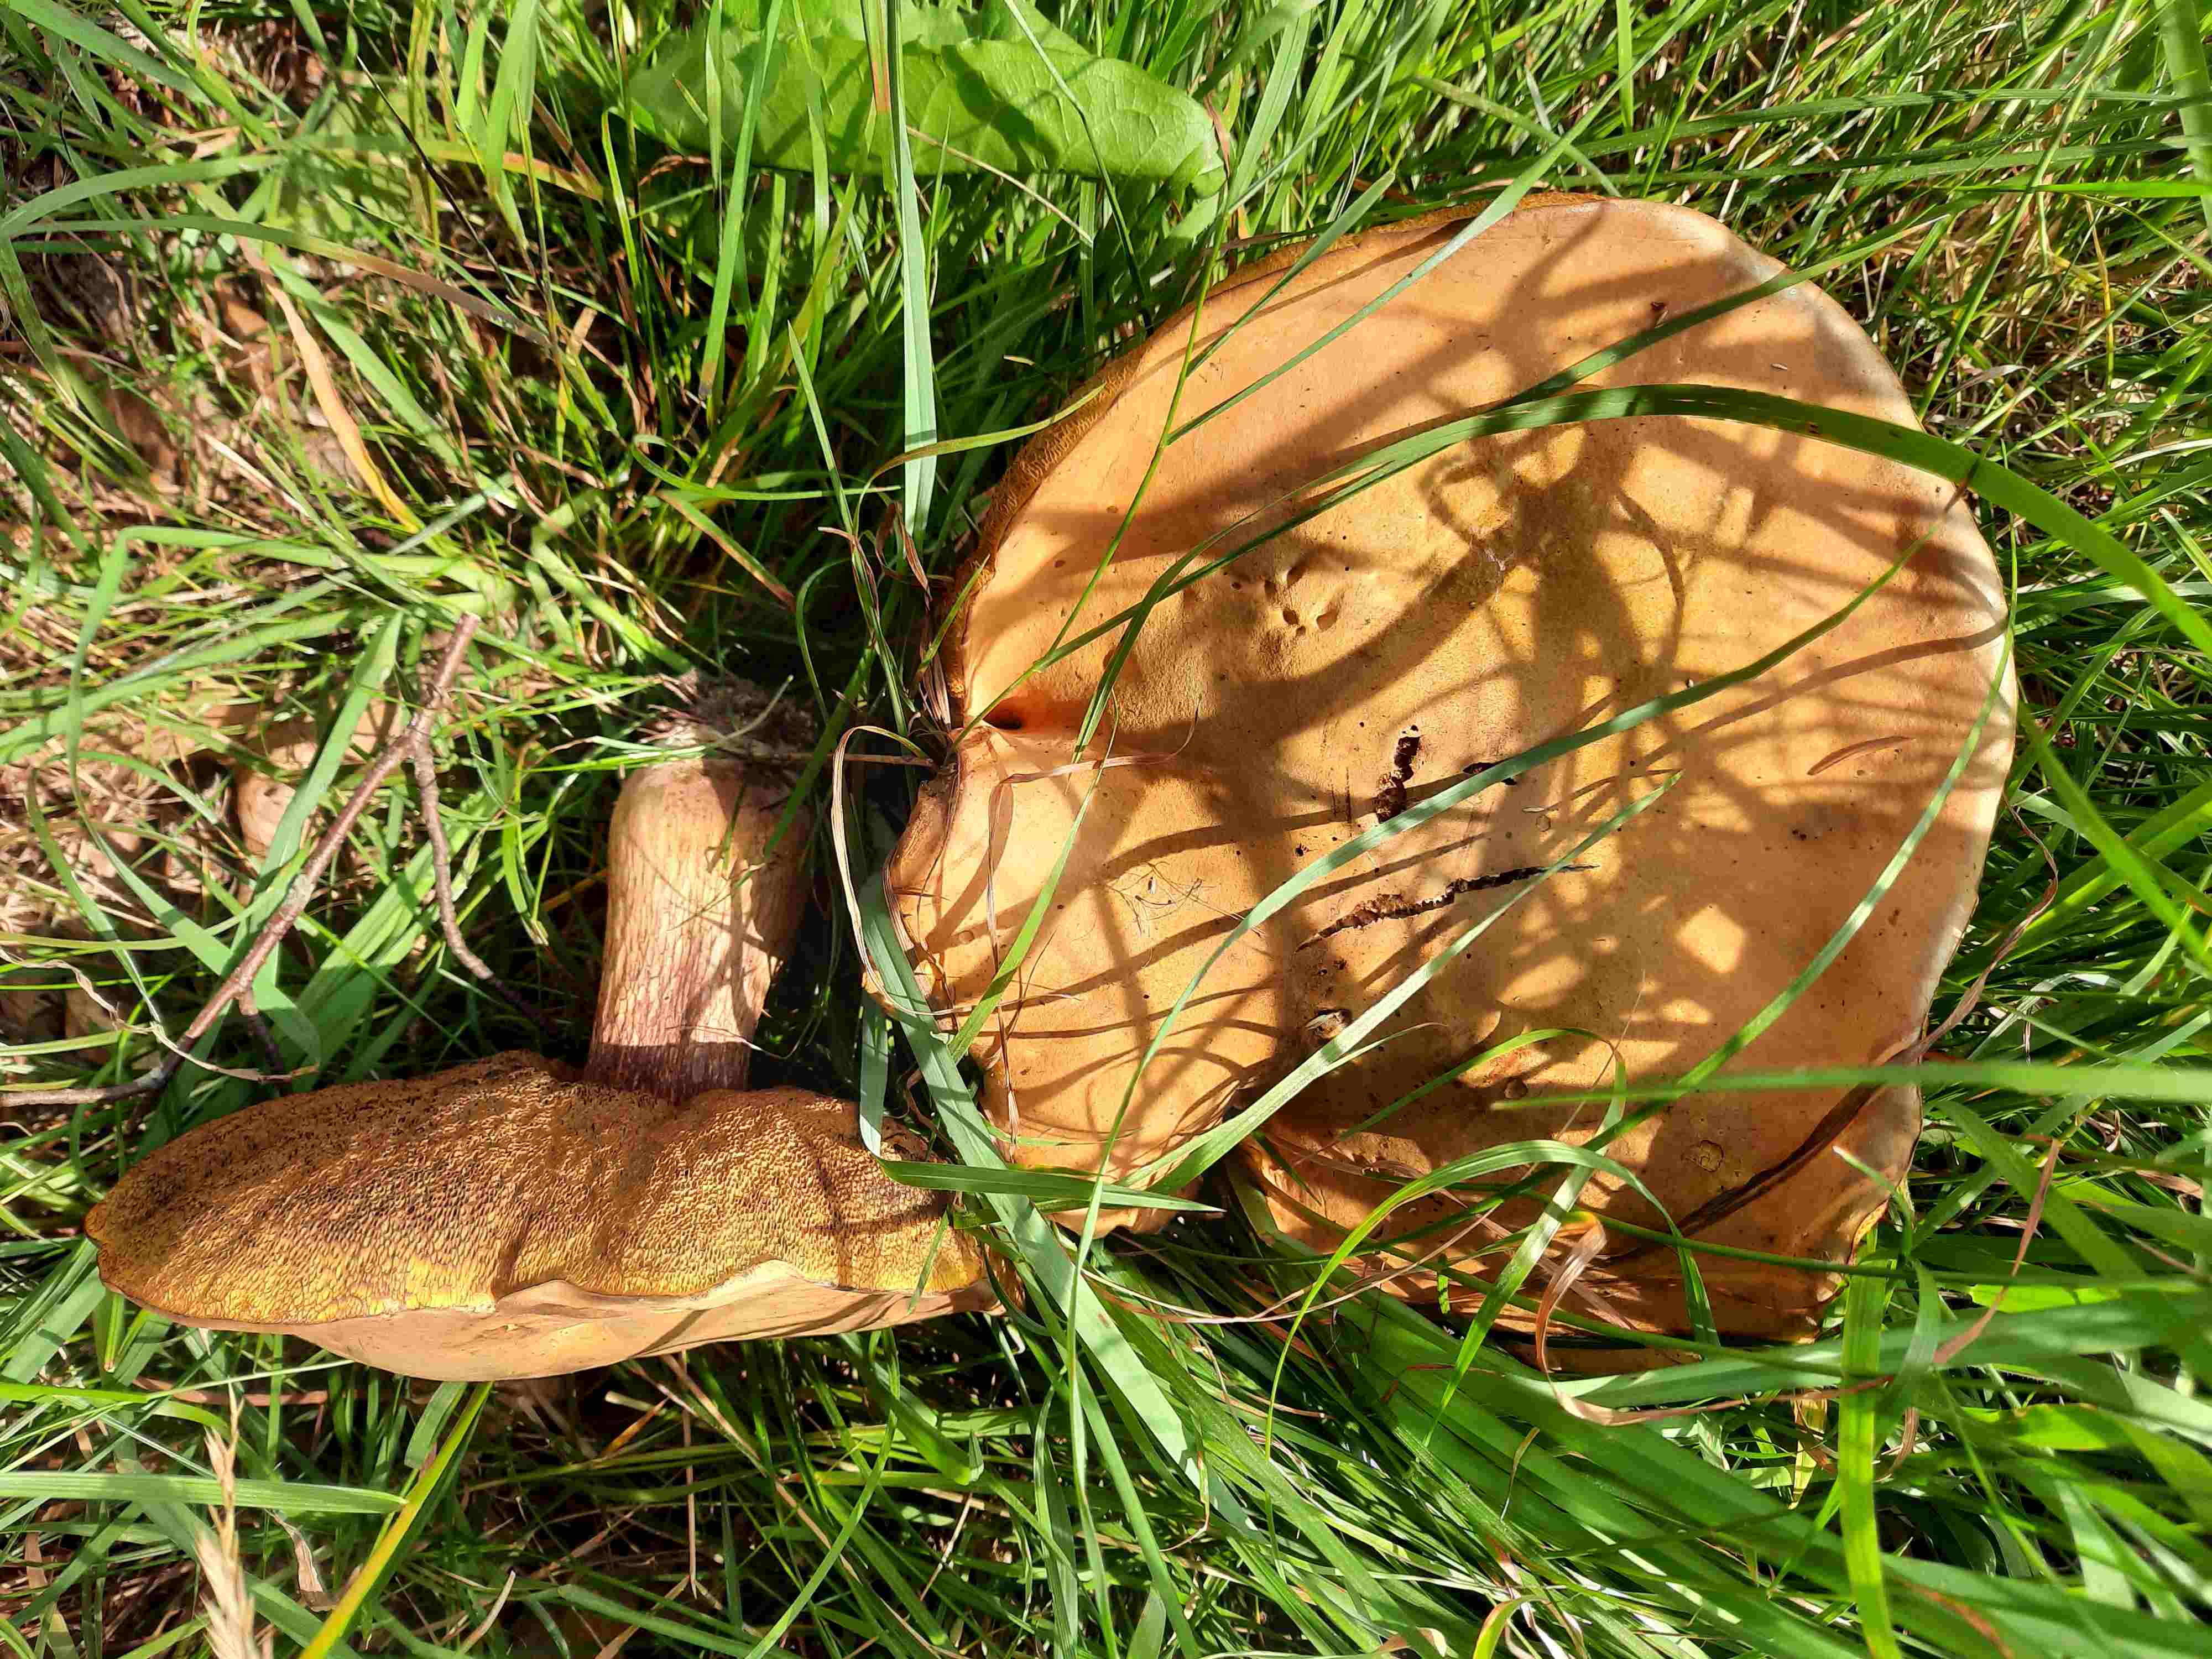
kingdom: Fungi
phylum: Basidiomycota
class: Agaricomycetes
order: Boletales
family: Boletaceae
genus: Suillellus
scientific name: Suillellus luridus
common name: netstokket indigorørhat
